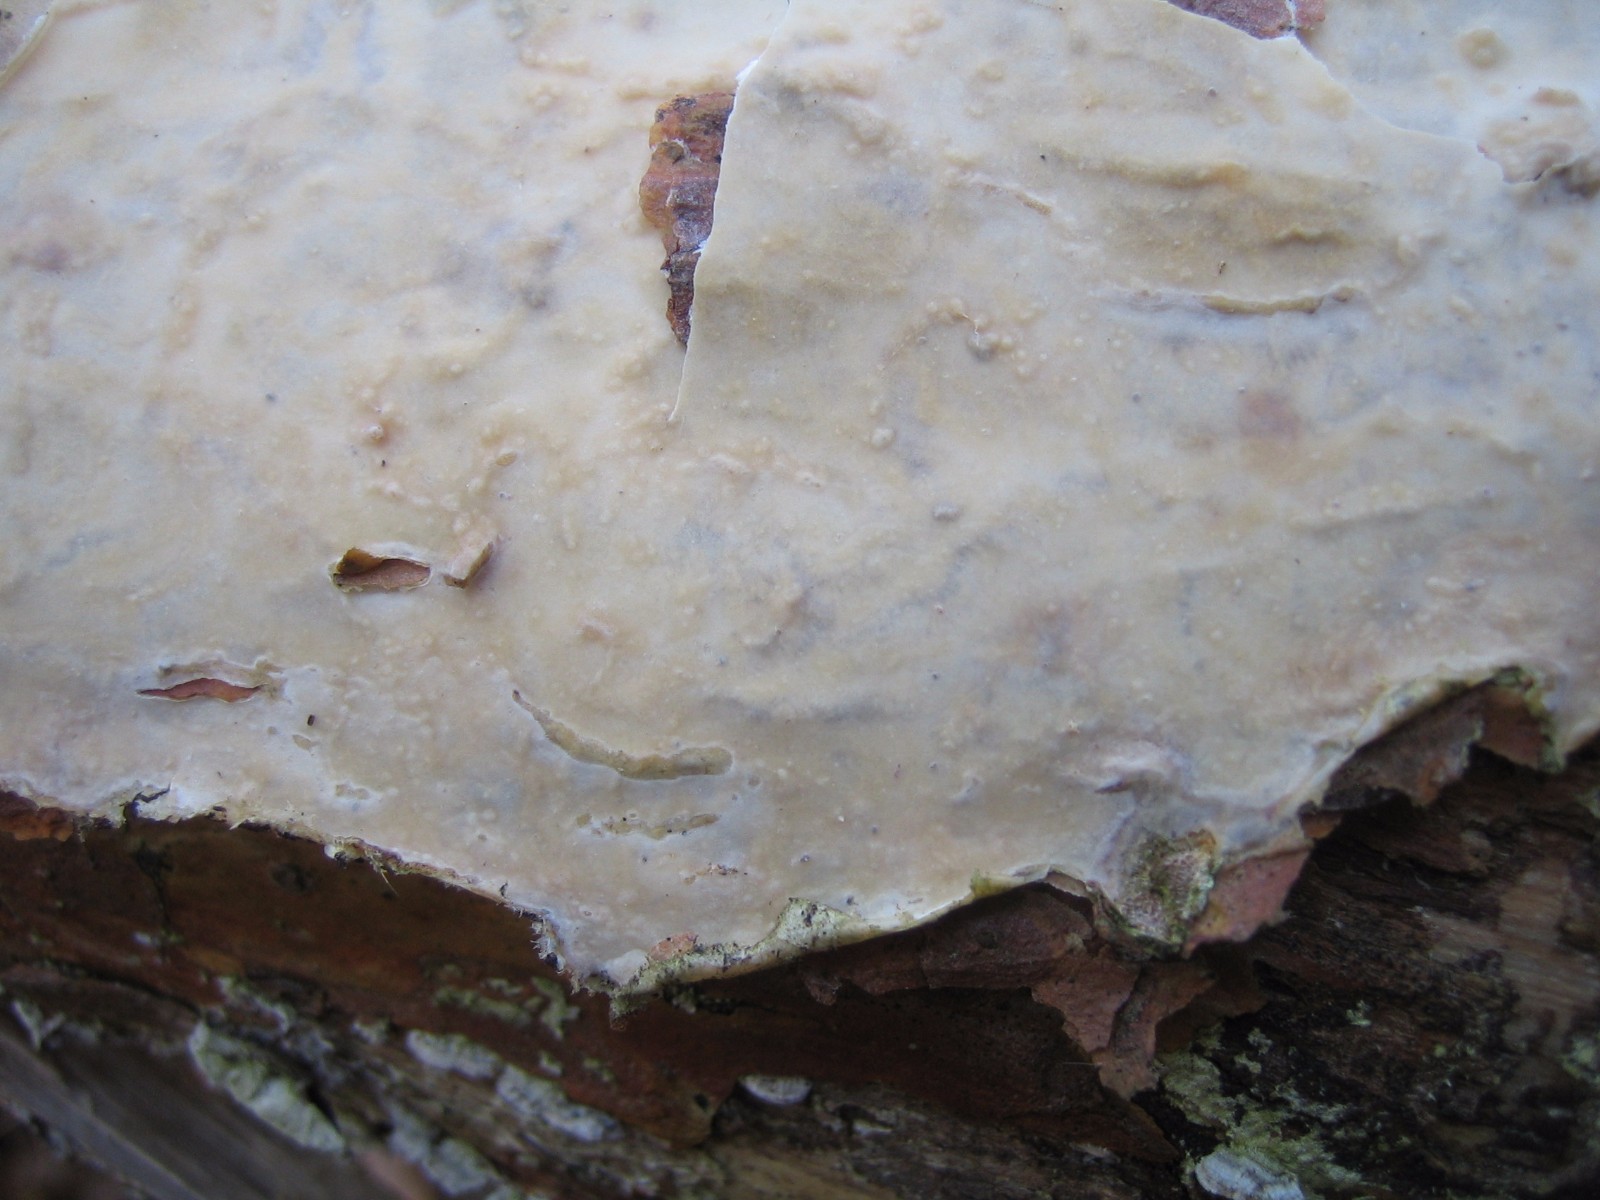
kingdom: Fungi
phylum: Basidiomycota
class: Agaricomycetes
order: Corticiales
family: Corticiaceae
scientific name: Corticiaceae
